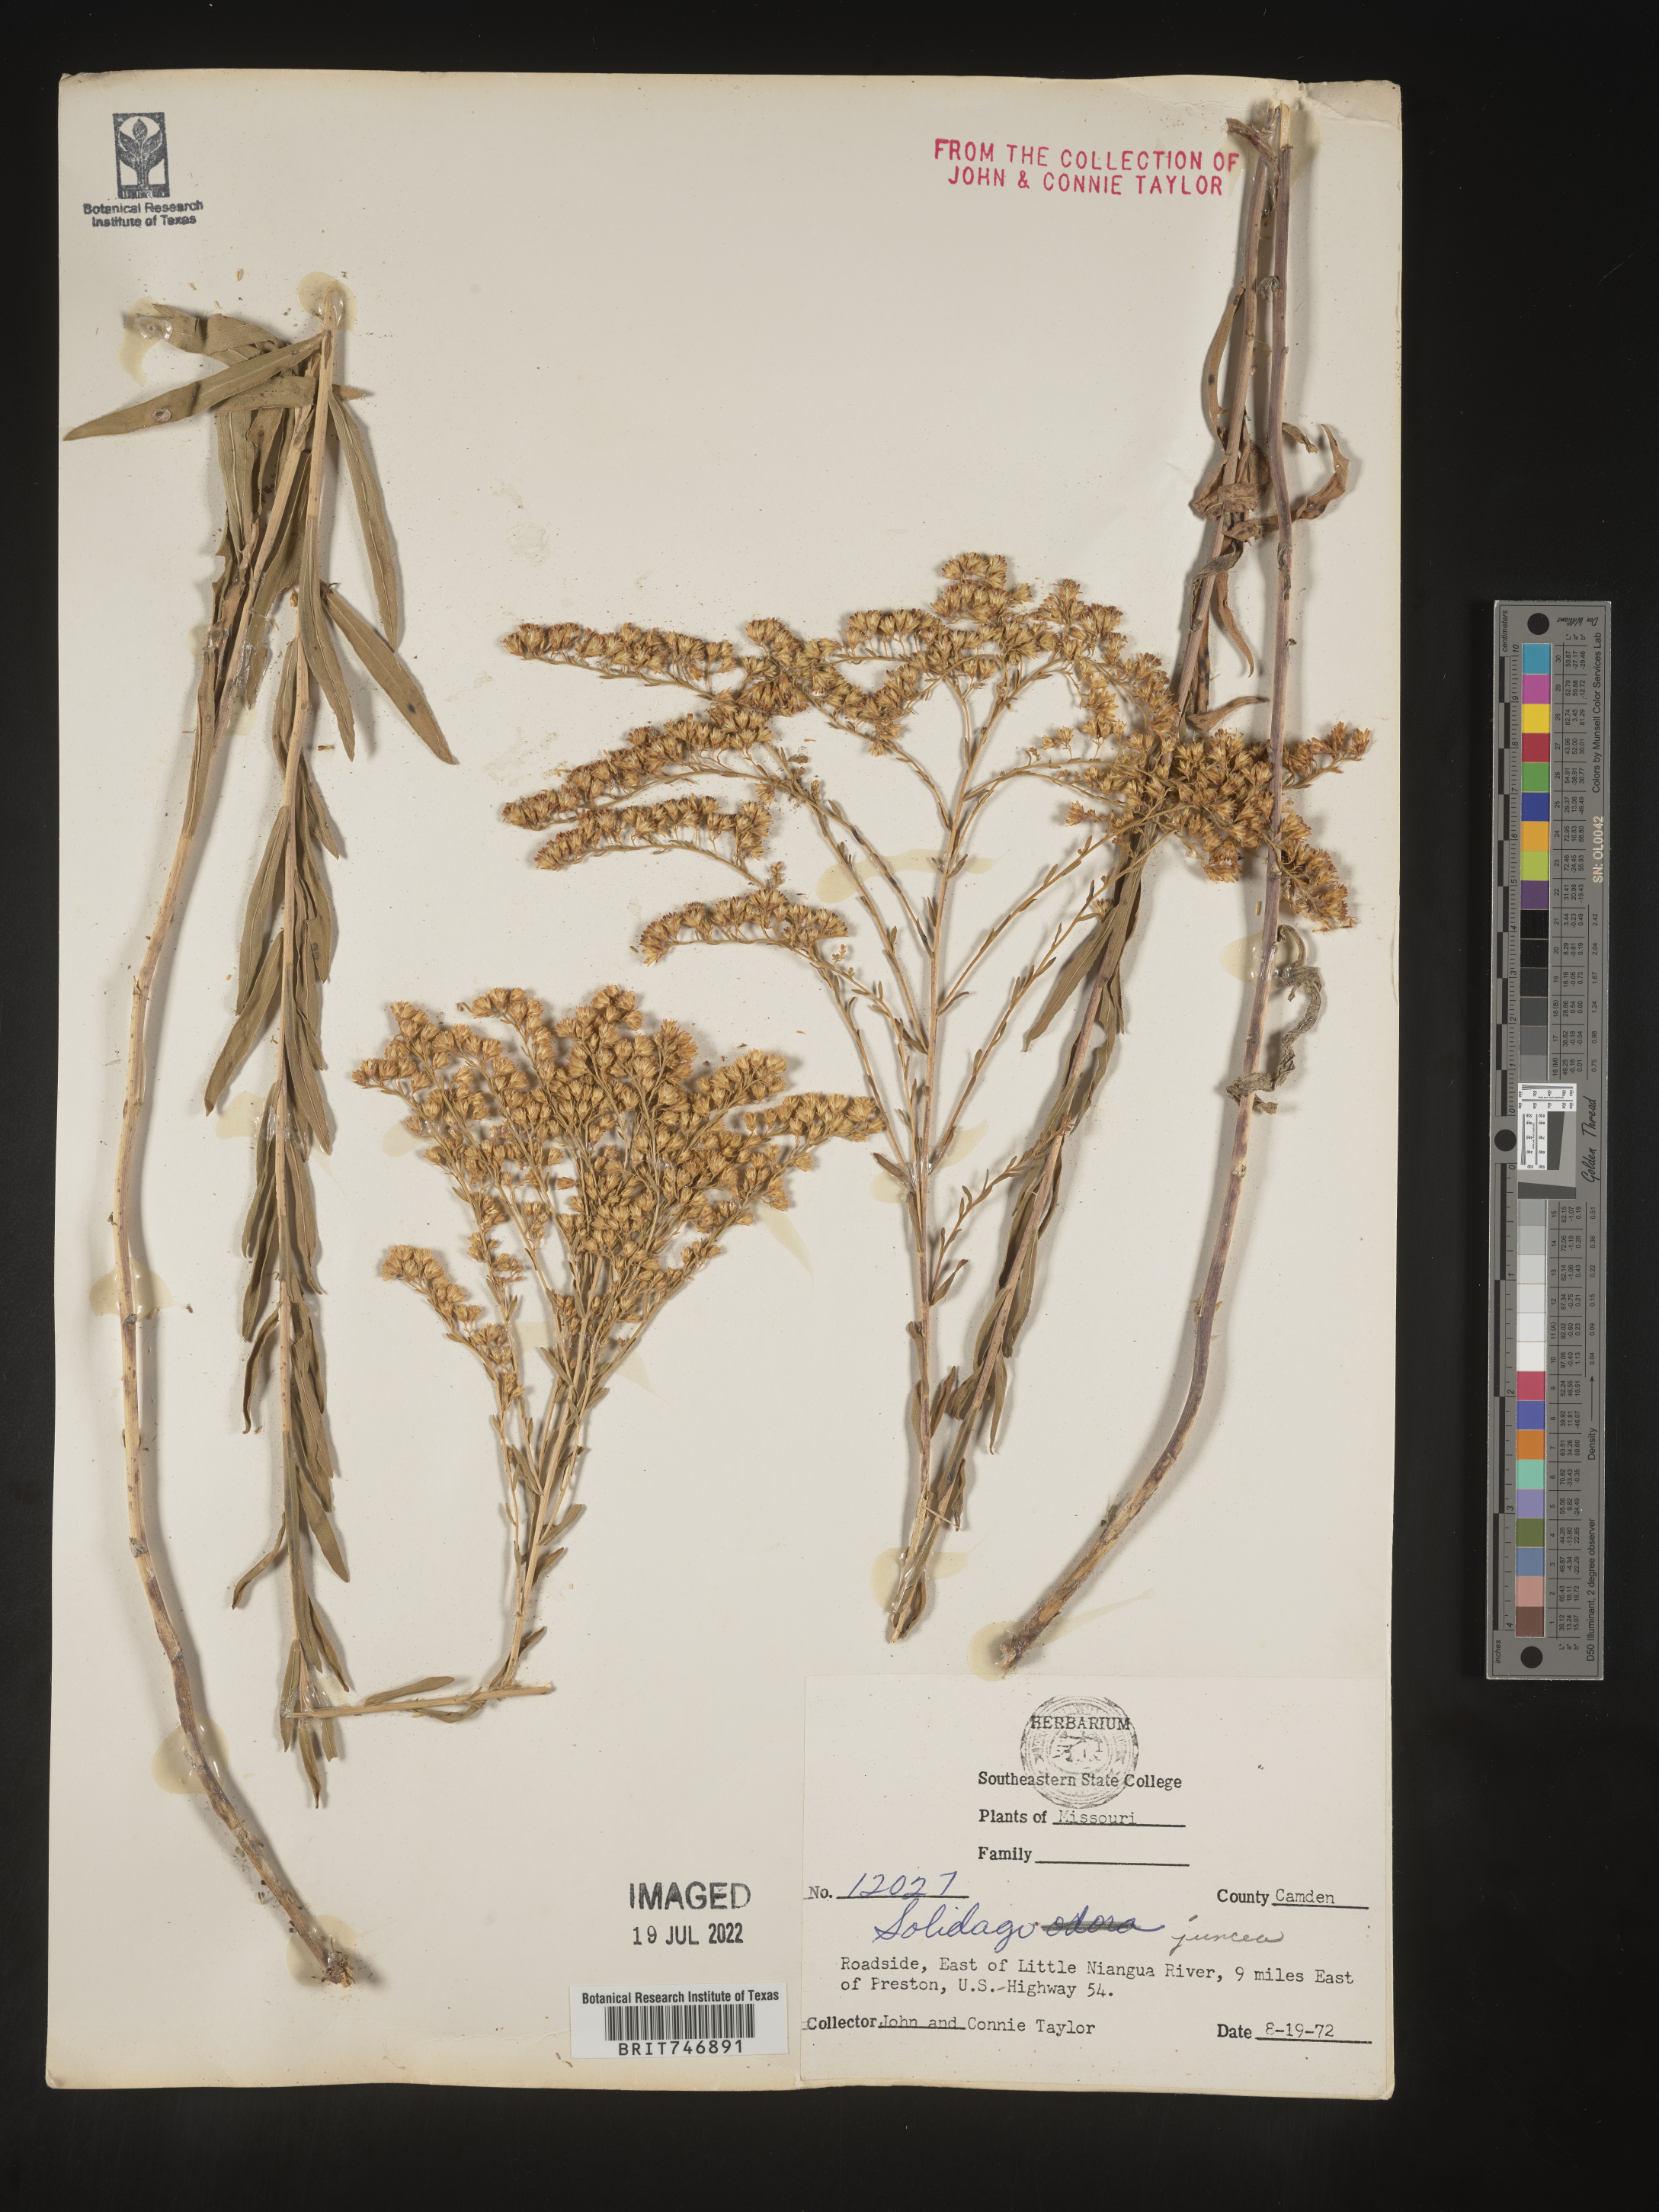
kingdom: Plantae
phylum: Tracheophyta
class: Magnoliopsida
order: Asterales
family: Asteraceae
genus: Solidago
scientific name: Solidago juncea
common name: Early goldenrod
